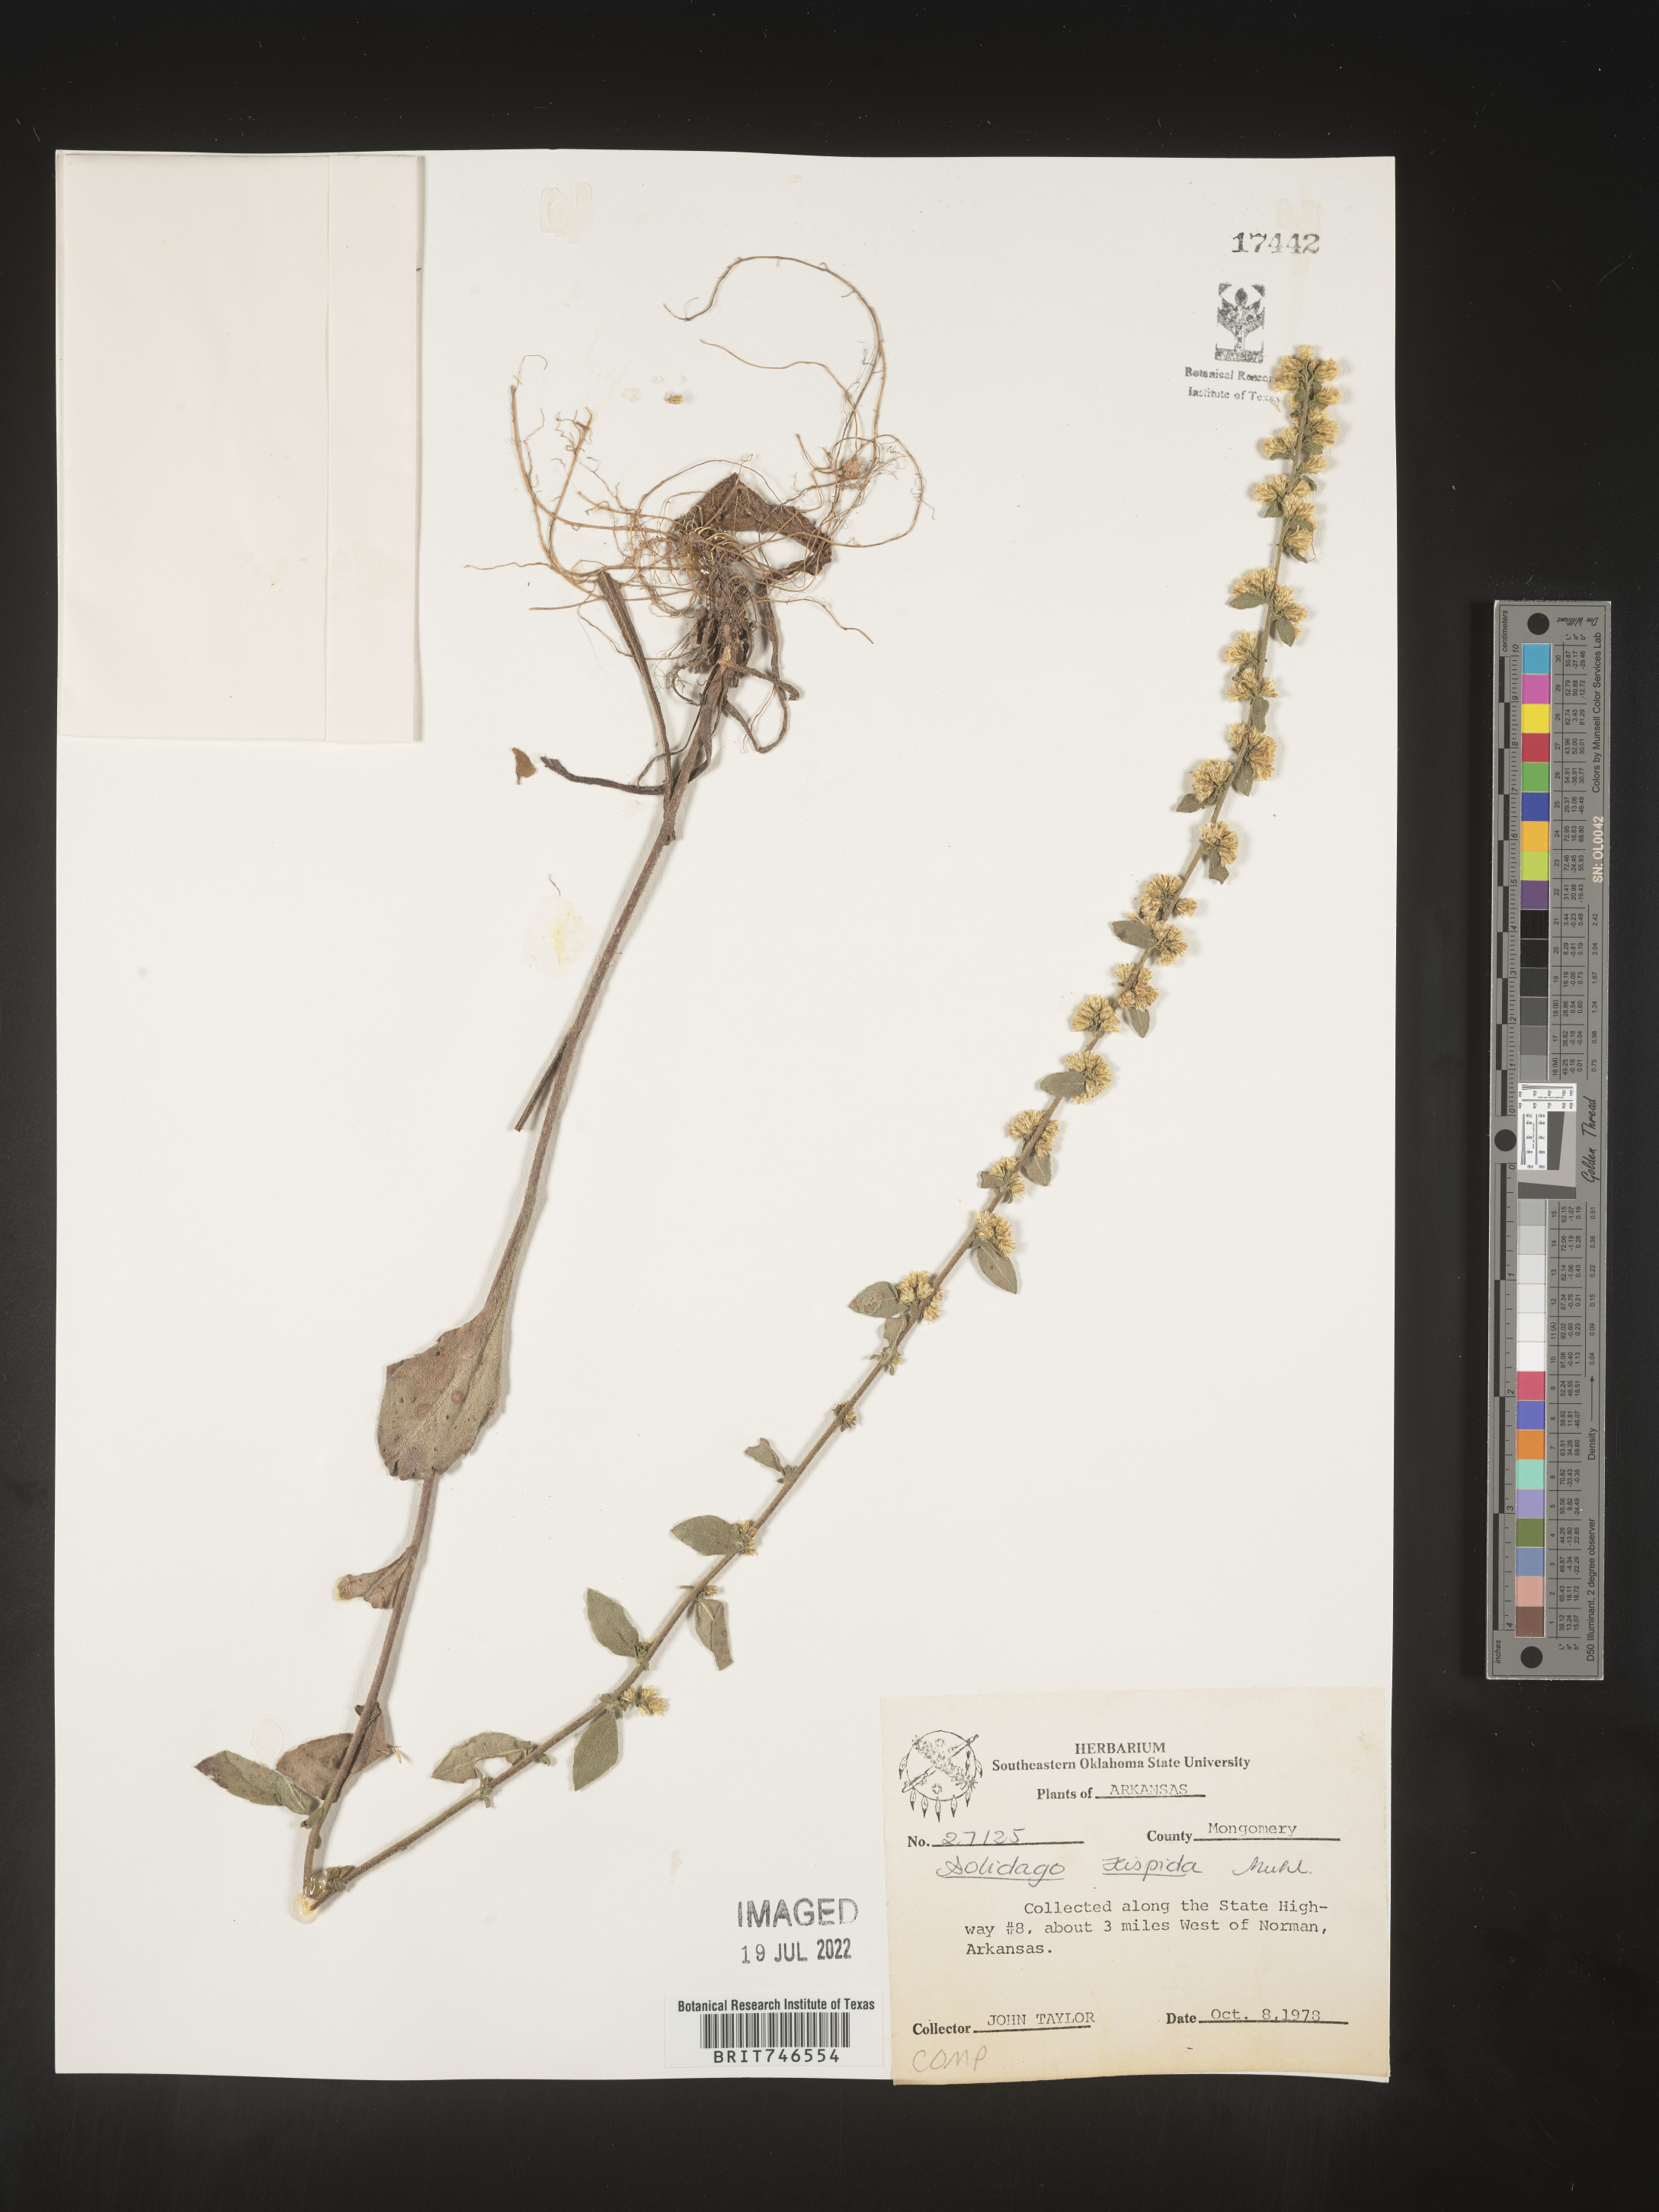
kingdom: Plantae
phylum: Tracheophyta
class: Magnoliopsida
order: Asterales
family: Asteraceae
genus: Solidago
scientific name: Solidago hispida
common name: Hairy goldenrod
